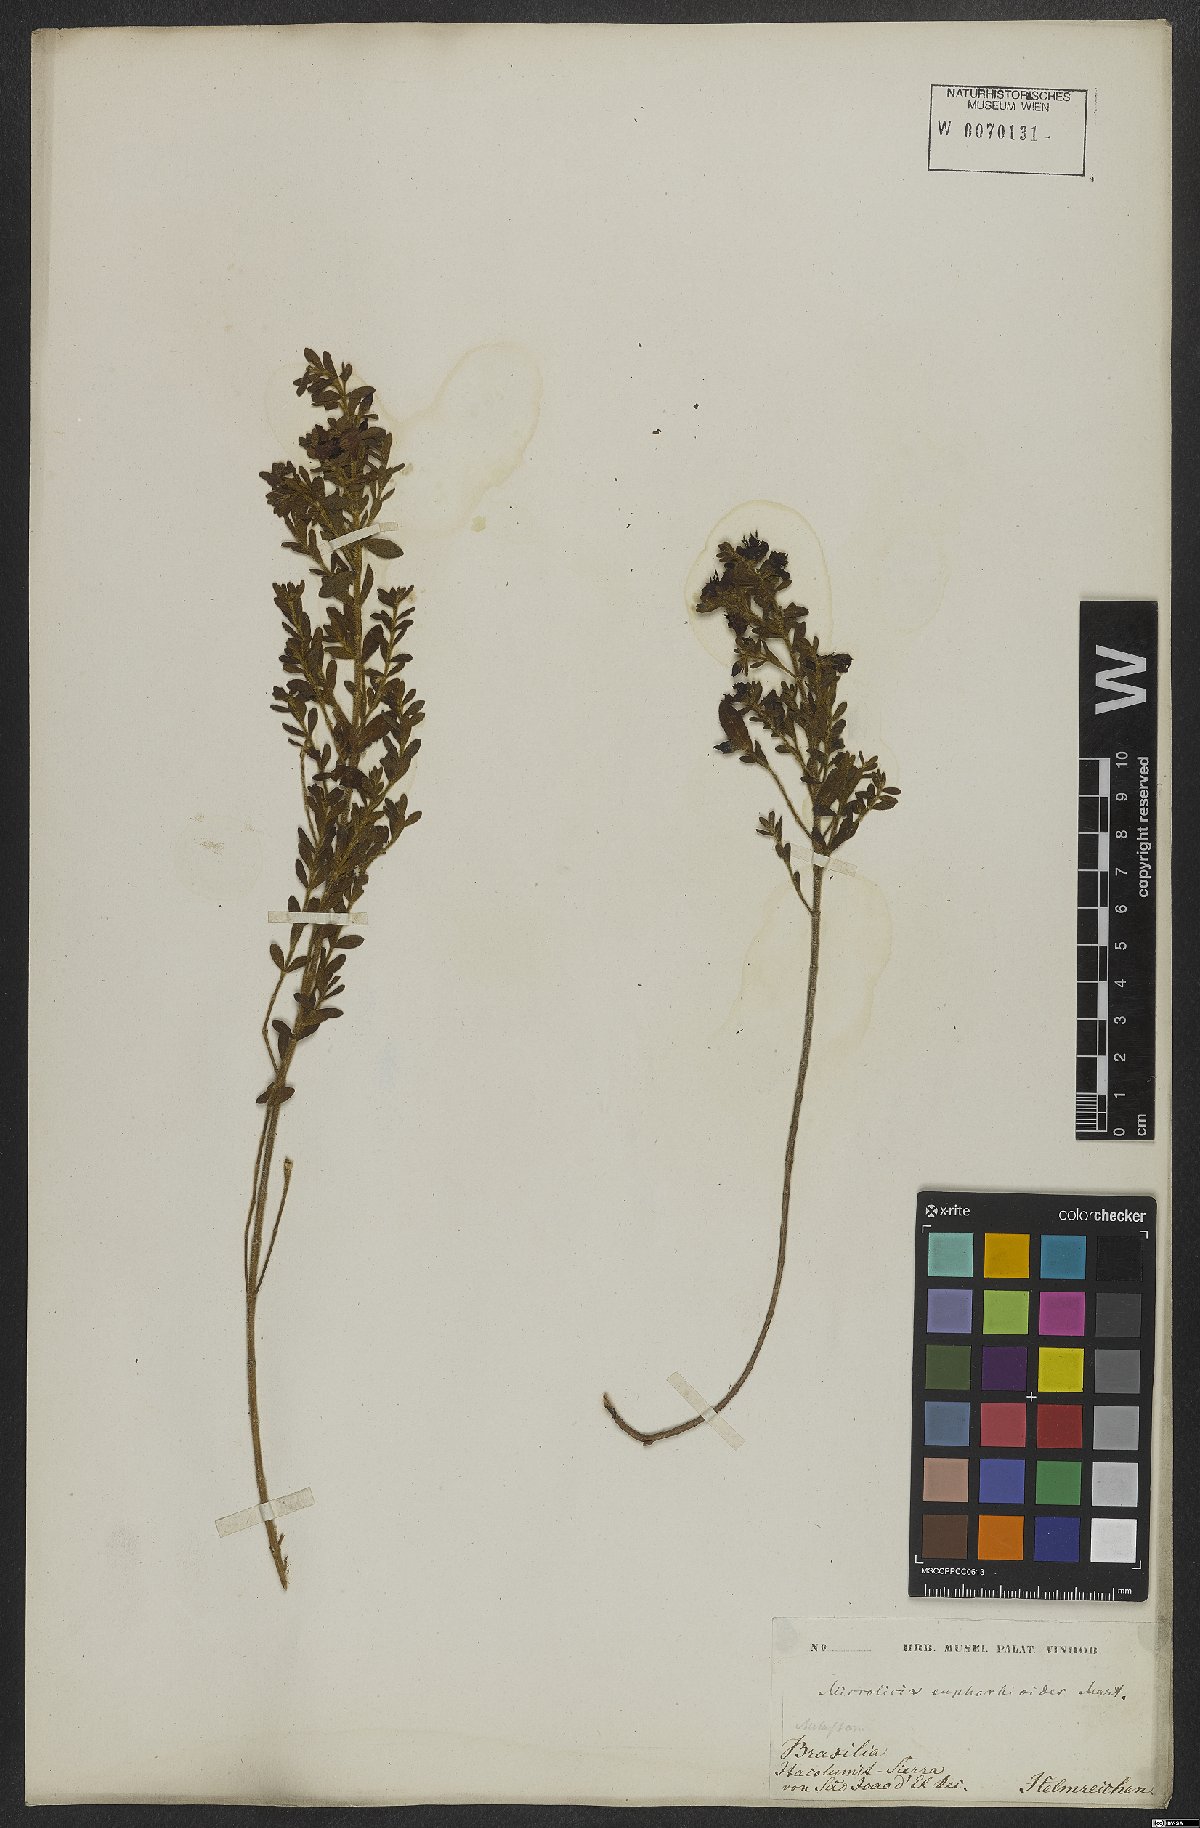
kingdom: Plantae
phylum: Tracheophyta
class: Magnoliopsida
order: Myrtales
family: Melastomataceae
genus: Microlicia
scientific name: Microlicia euphorbioides
